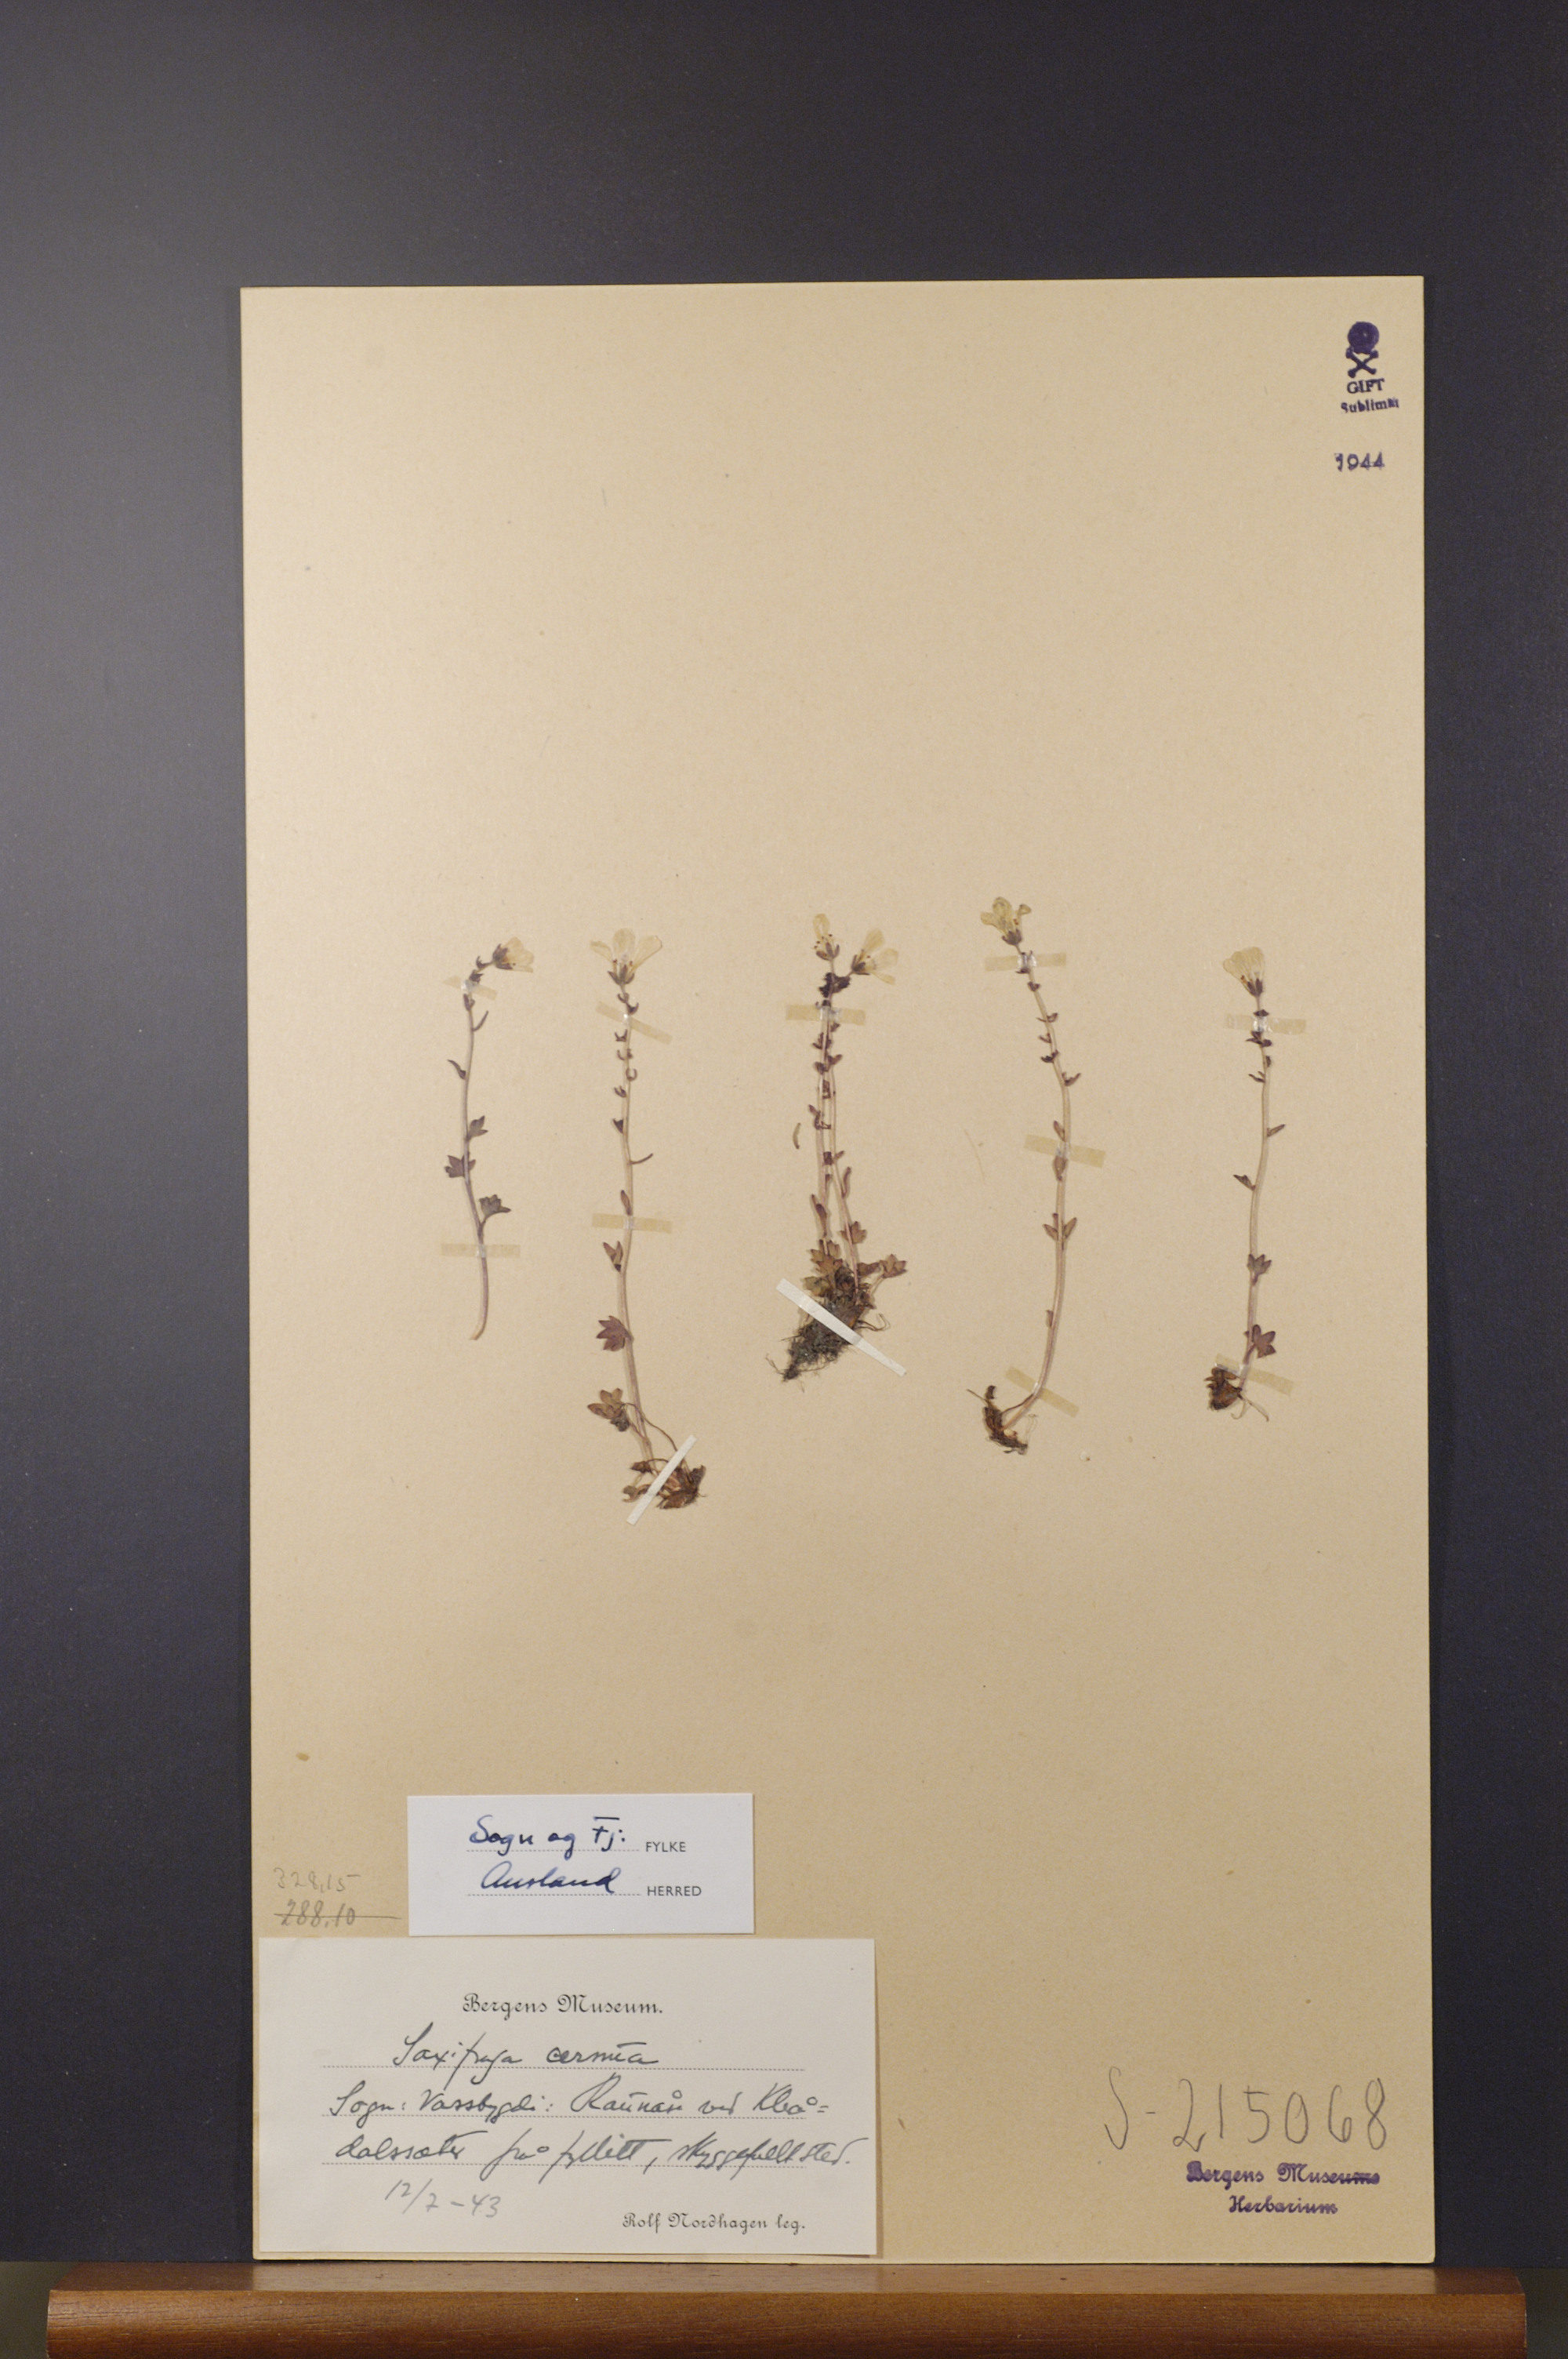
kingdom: Plantae
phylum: Tracheophyta
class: Magnoliopsida
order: Saxifragales
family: Saxifragaceae
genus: Saxifraga
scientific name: Saxifraga cernua
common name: Drooping saxifrage
